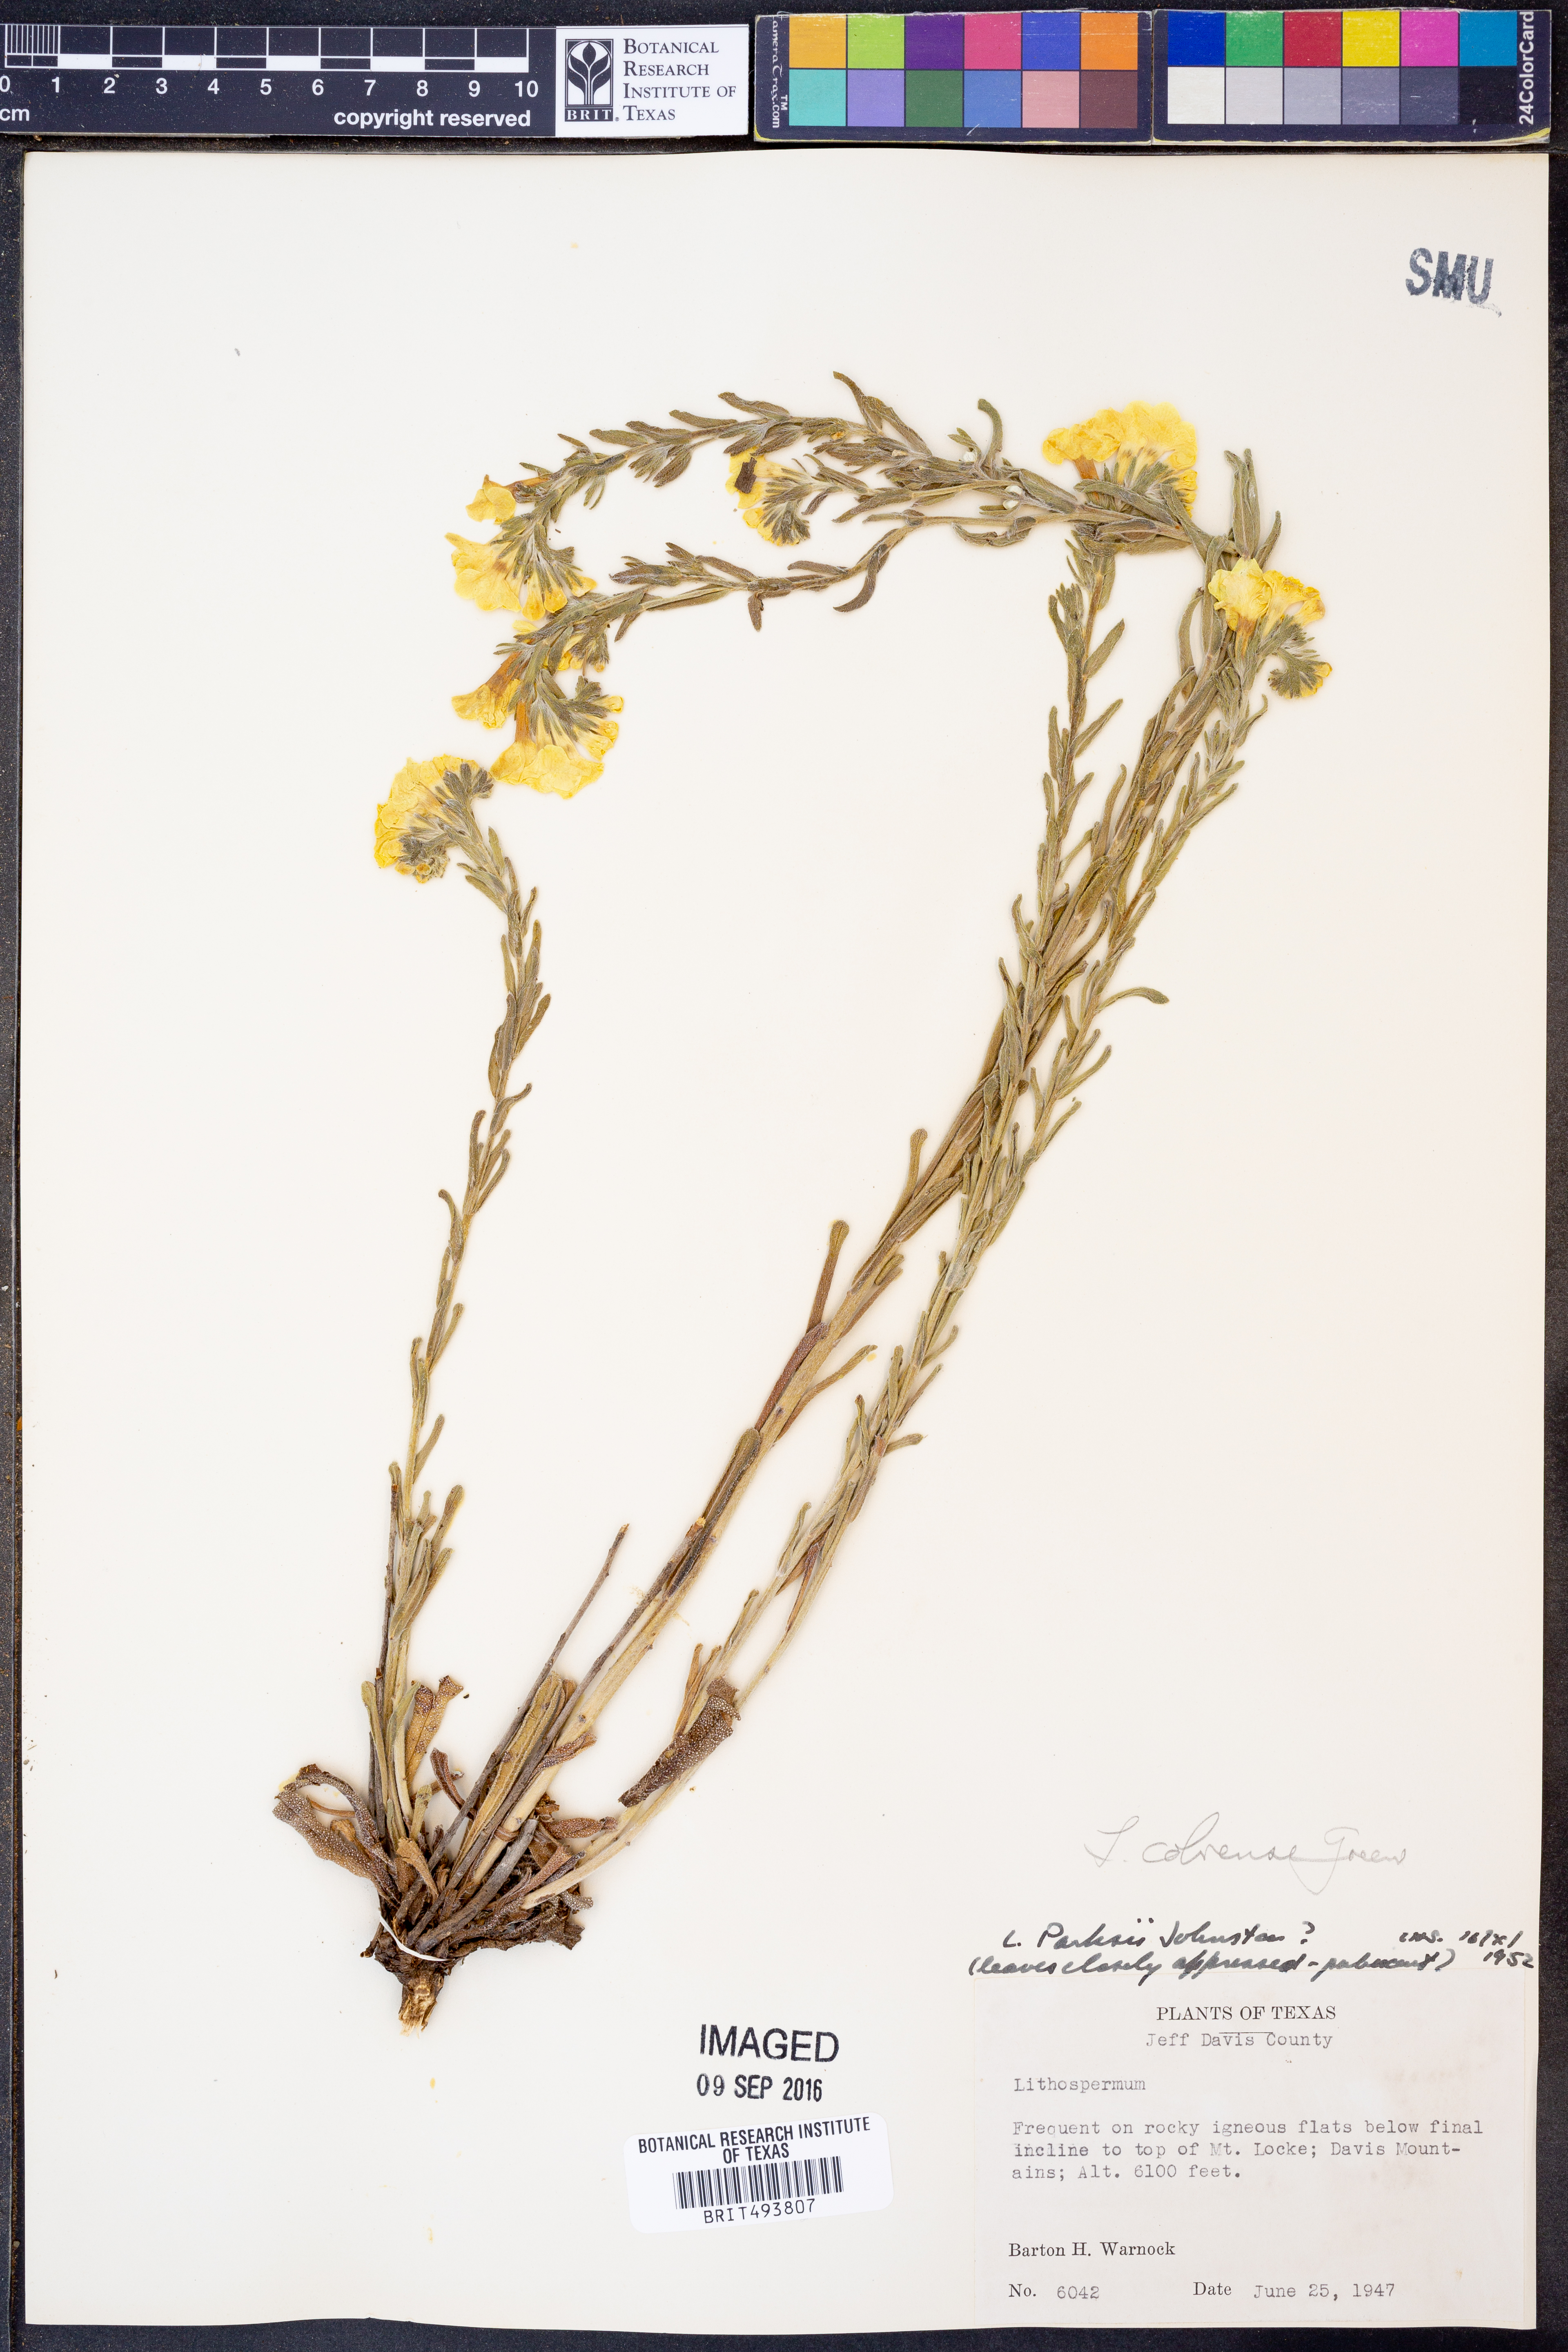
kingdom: Plantae
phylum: Tracheophyta
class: Magnoliopsida
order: Boraginales
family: Boraginaceae
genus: Lithospermum
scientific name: Lithospermum cobrense
